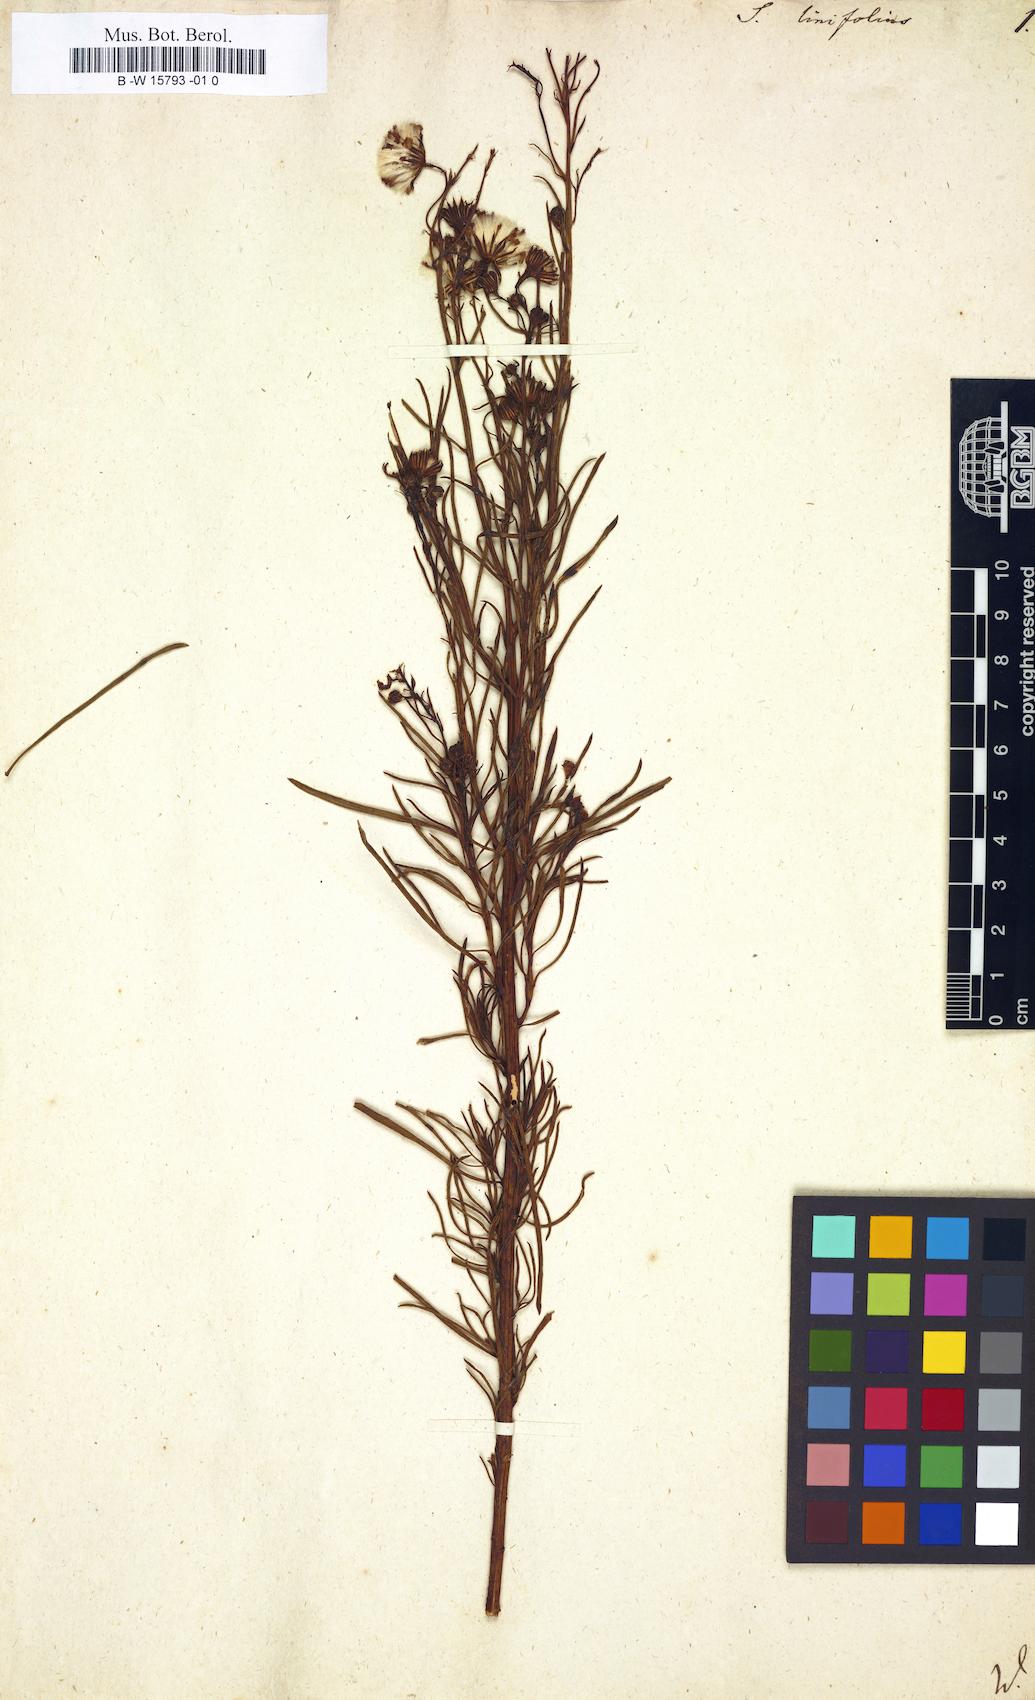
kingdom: Plantae
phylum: Tracheophyta
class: Magnoliopsida
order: Asterales
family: Asteraceae
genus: Senecio
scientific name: Senecio linifolius
